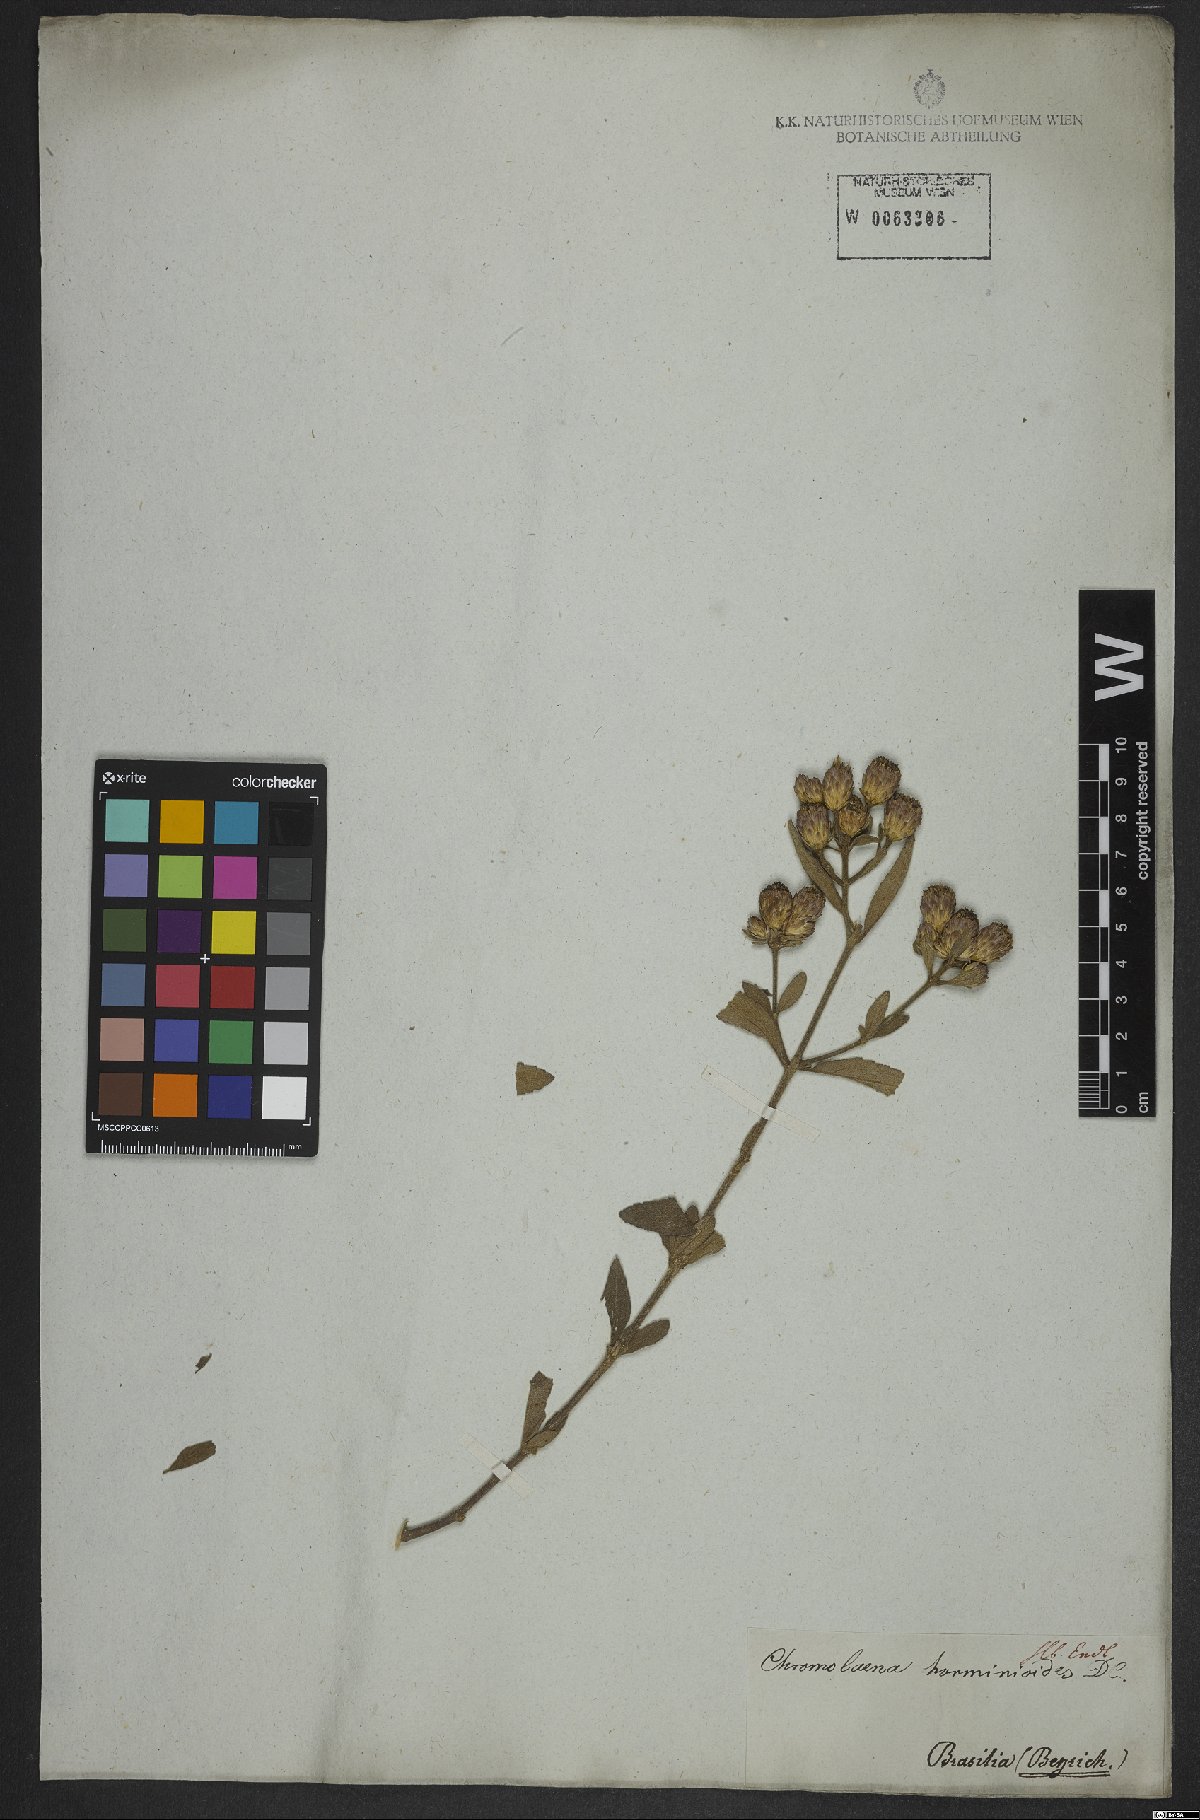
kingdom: Plantae
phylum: Tracheophyta
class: Magnoliopsida
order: Asterales
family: Asteraceae
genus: Chromolaena
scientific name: Chromolaena horminoides
